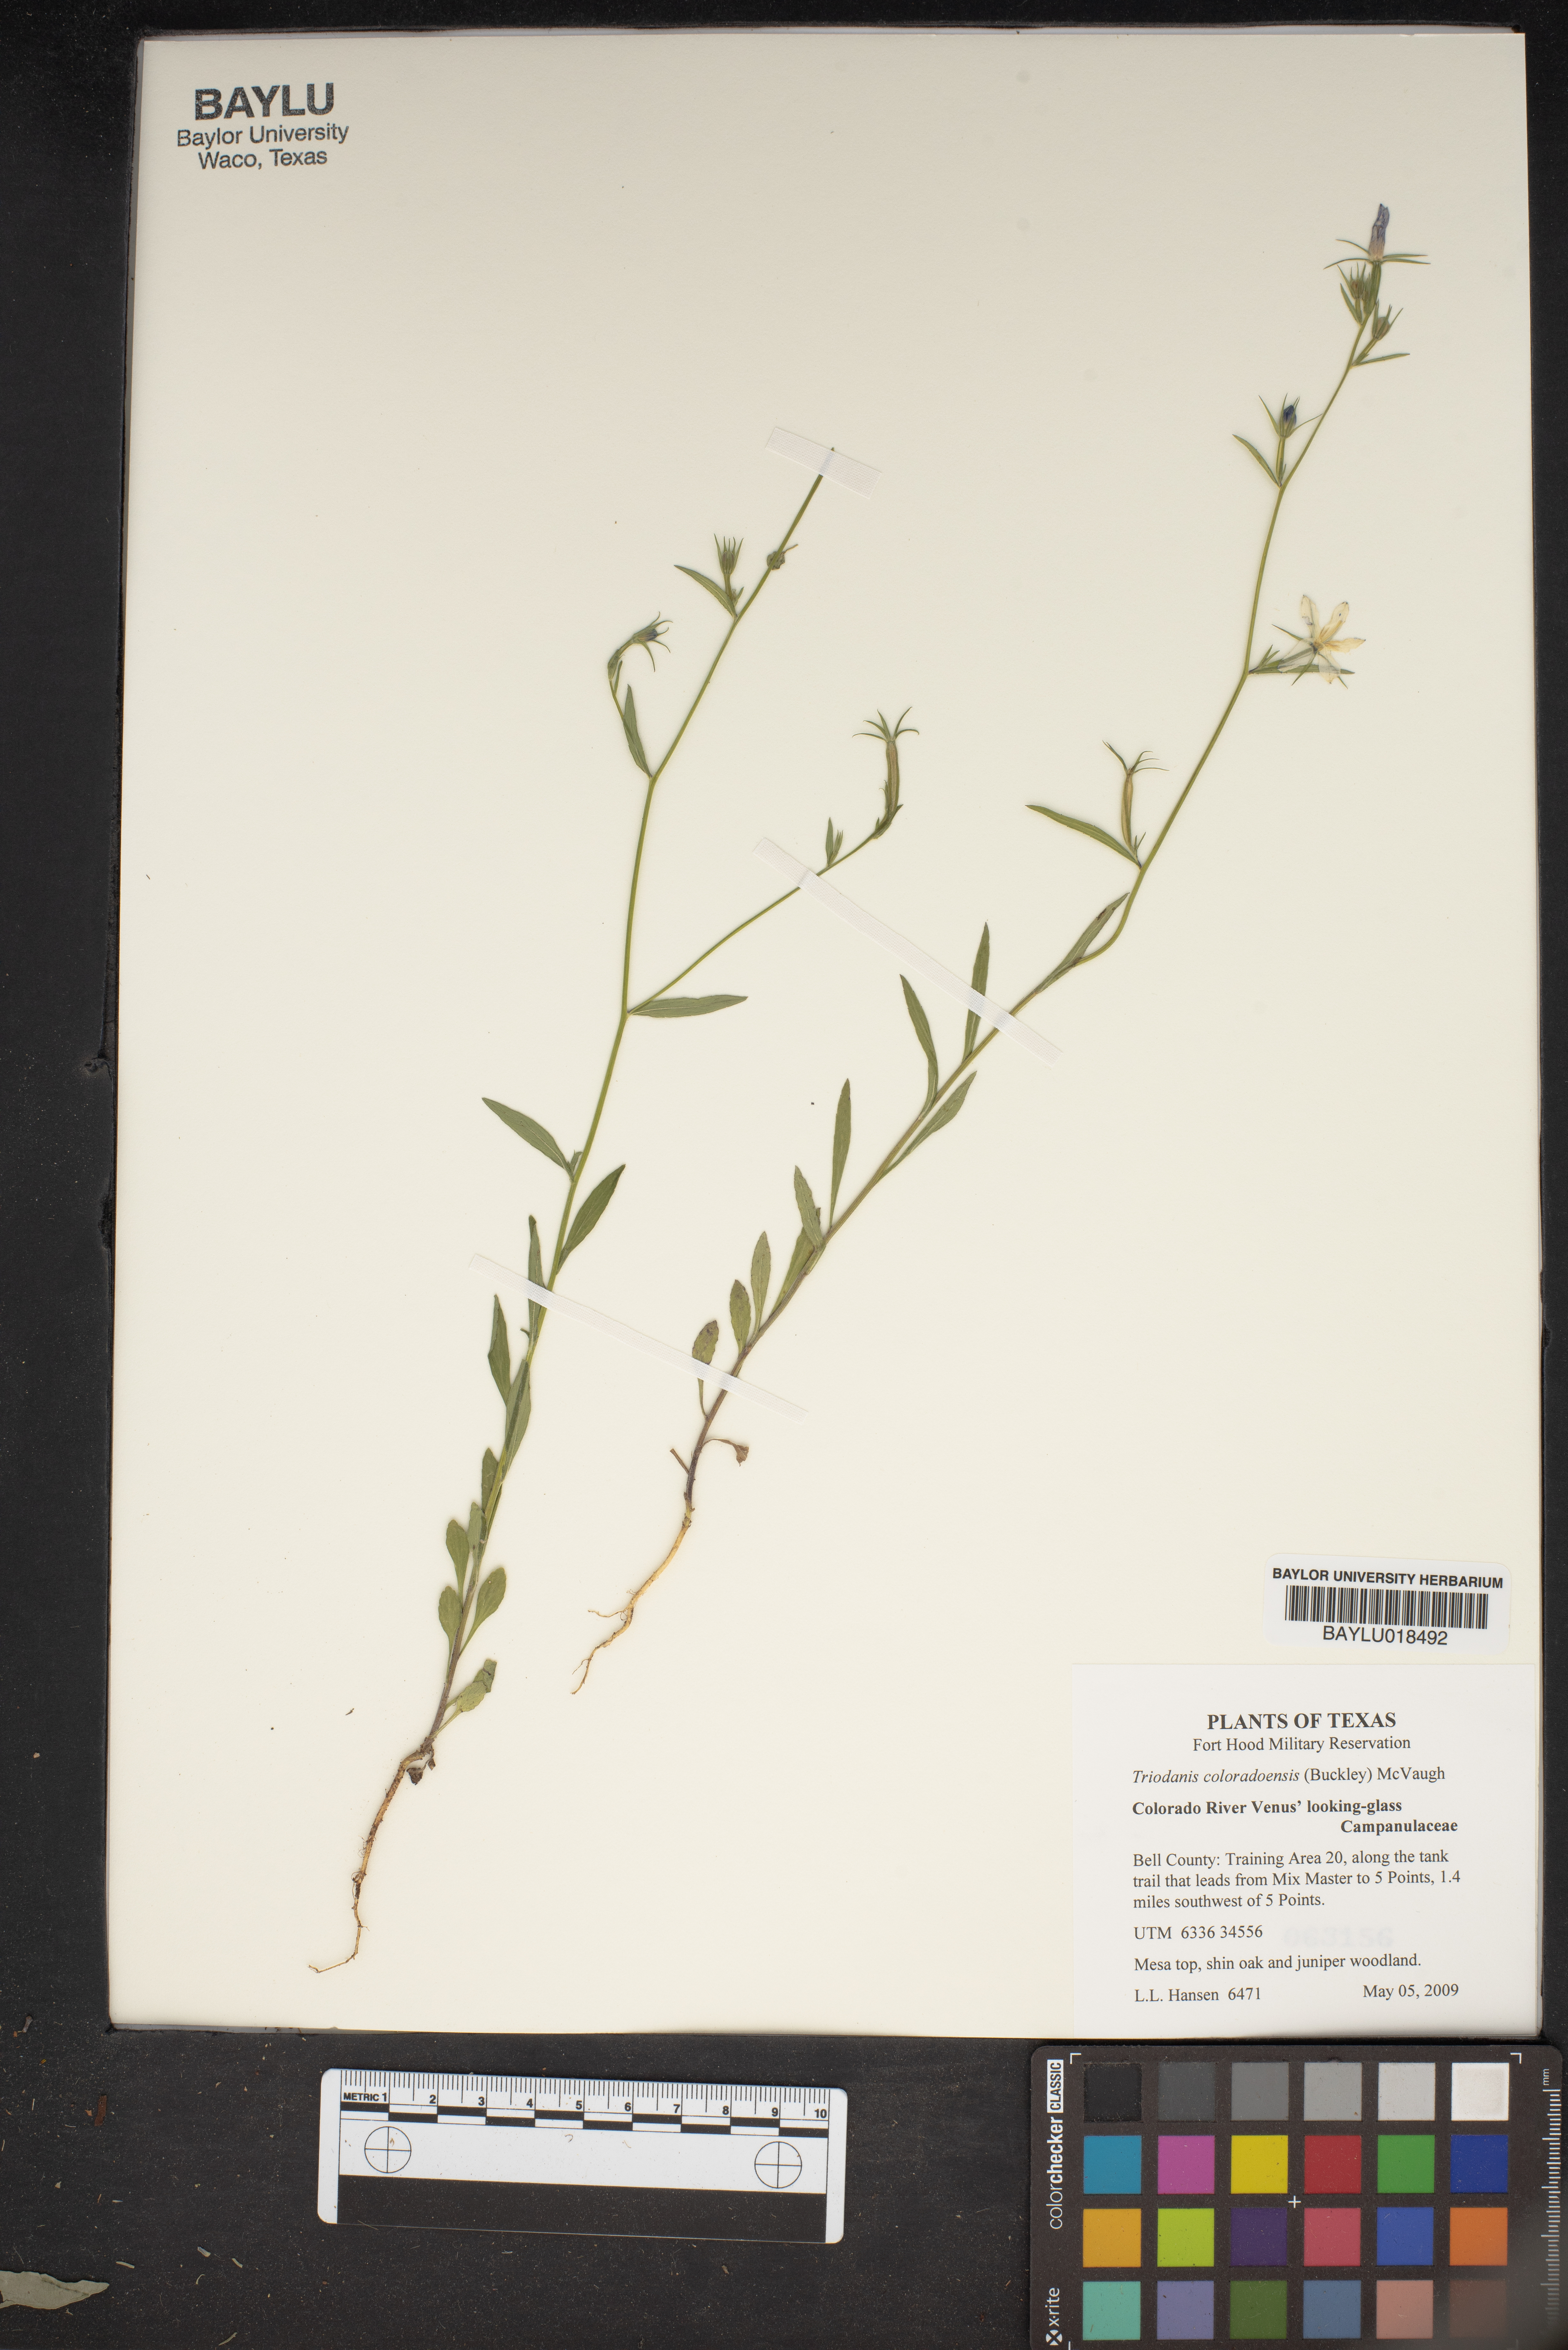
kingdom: Plantae
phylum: Tracheophyta
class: Magnoliopsida
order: Asterales
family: Campanulaceae
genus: Triodanis
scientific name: Triodanis coloradoensis
